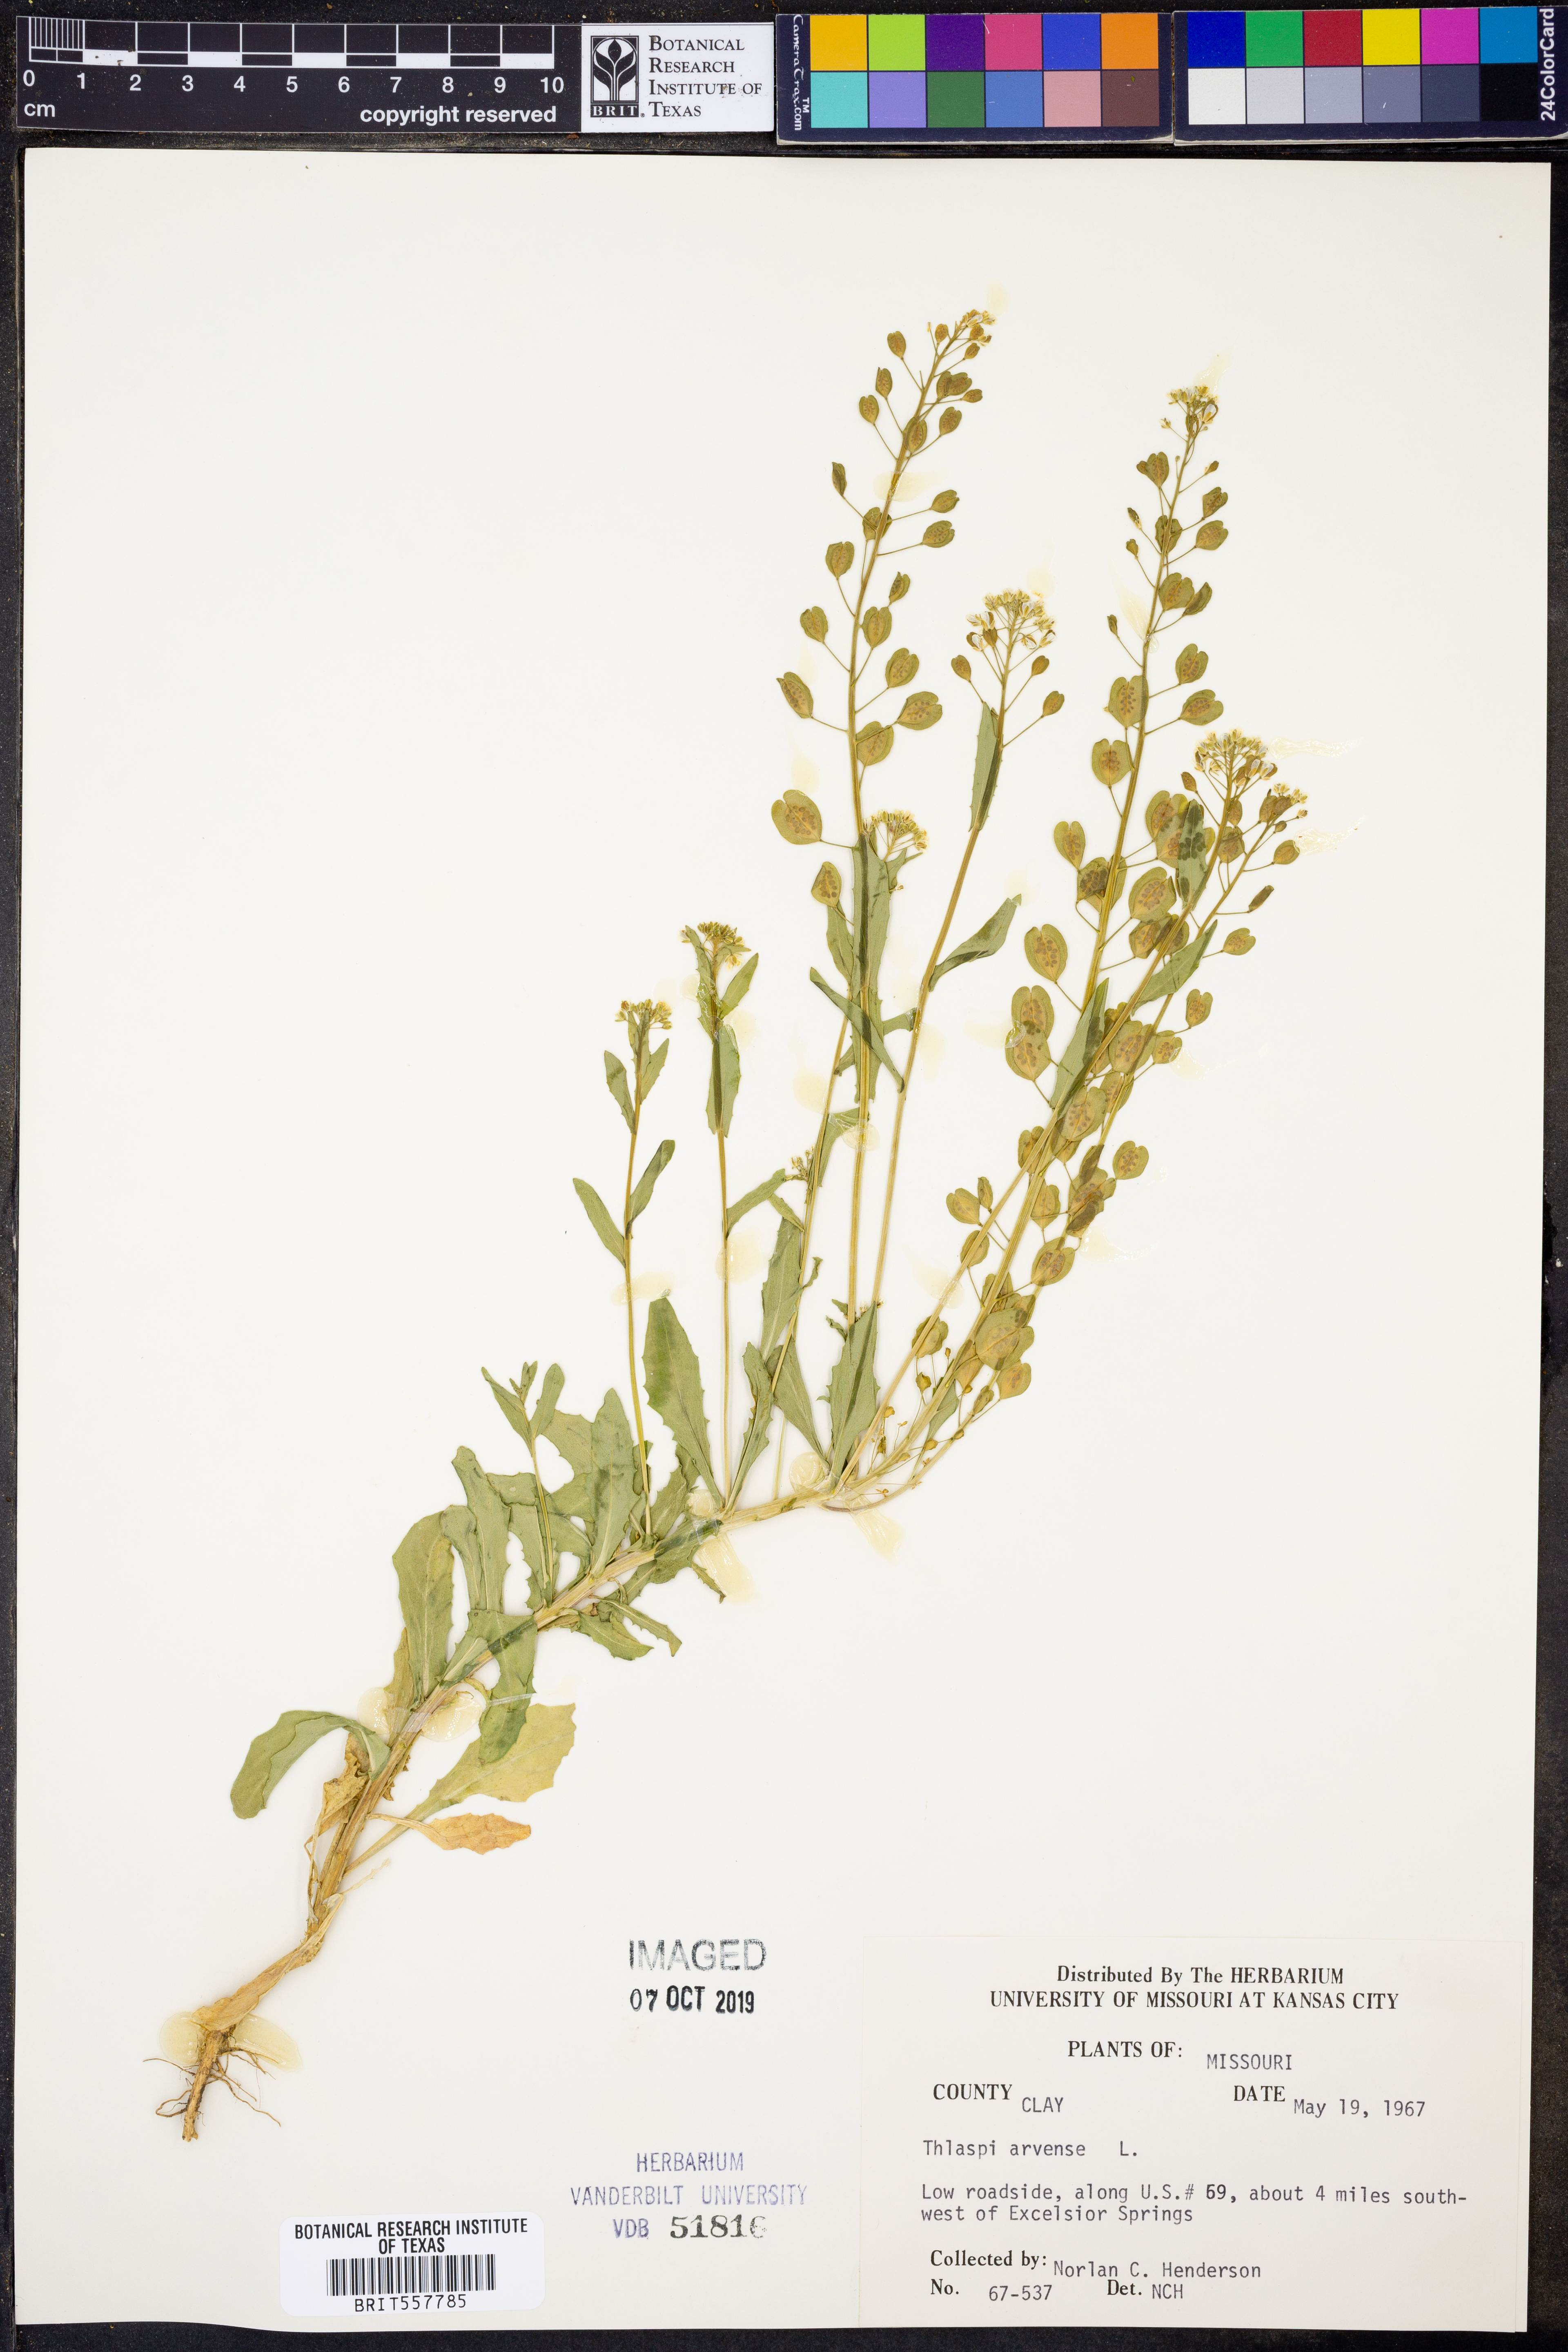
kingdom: Plantae
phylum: Tracheophyta
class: Magnoliopsida
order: Brassicales
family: Brassicaceae
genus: Thlaspi
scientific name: Thlaspi arvense
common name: Field pennycress
